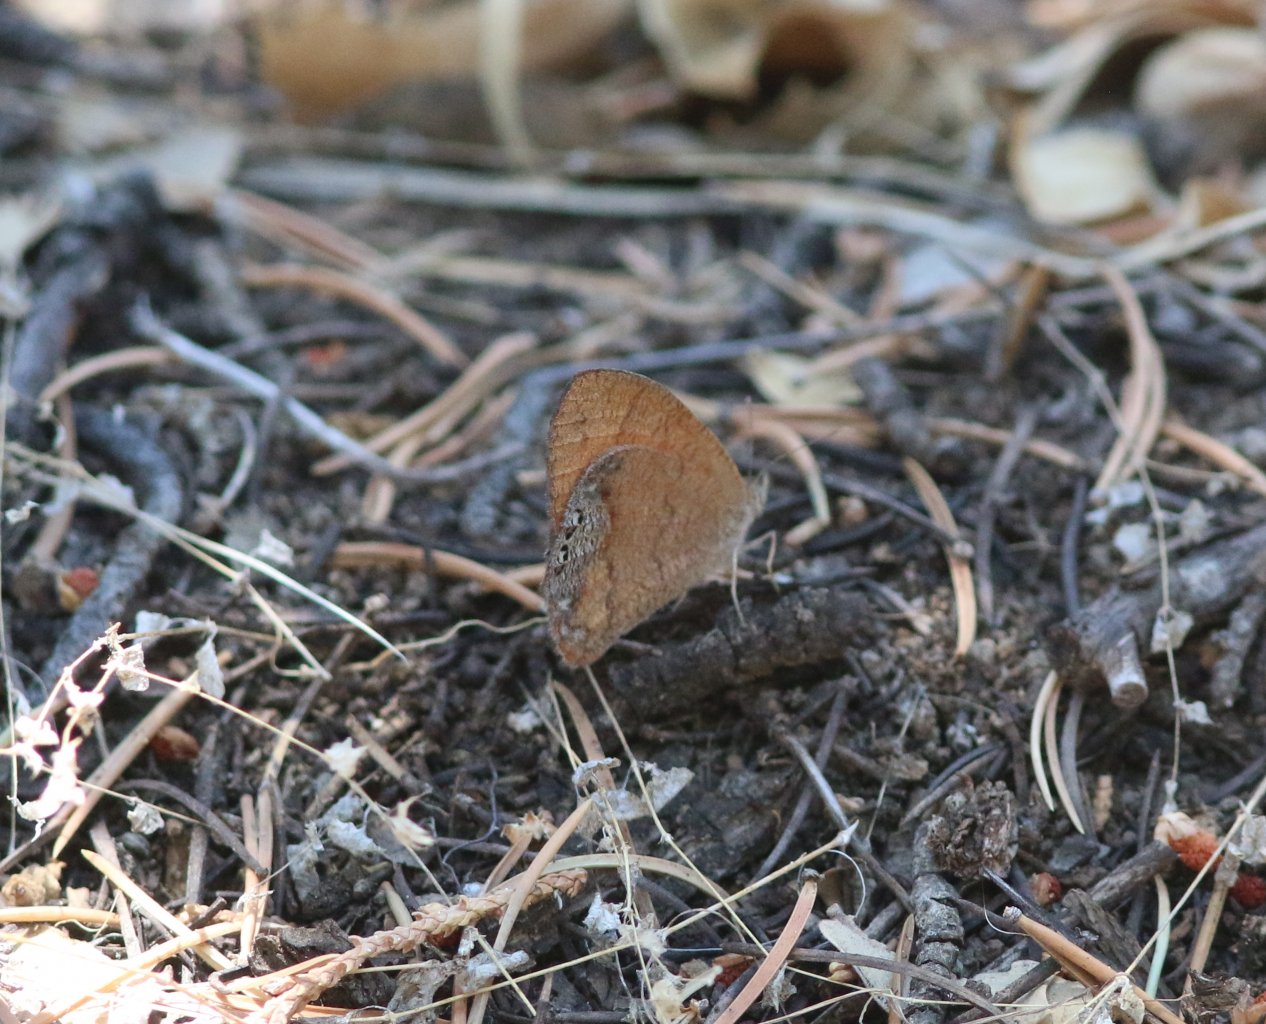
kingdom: Animalia
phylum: Arthropoda
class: Insecta
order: Lepidoptera
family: Nymphalidae
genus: Euptychia
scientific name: Euptychia Cyllopsis pertepida
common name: Canyonland Satyr
